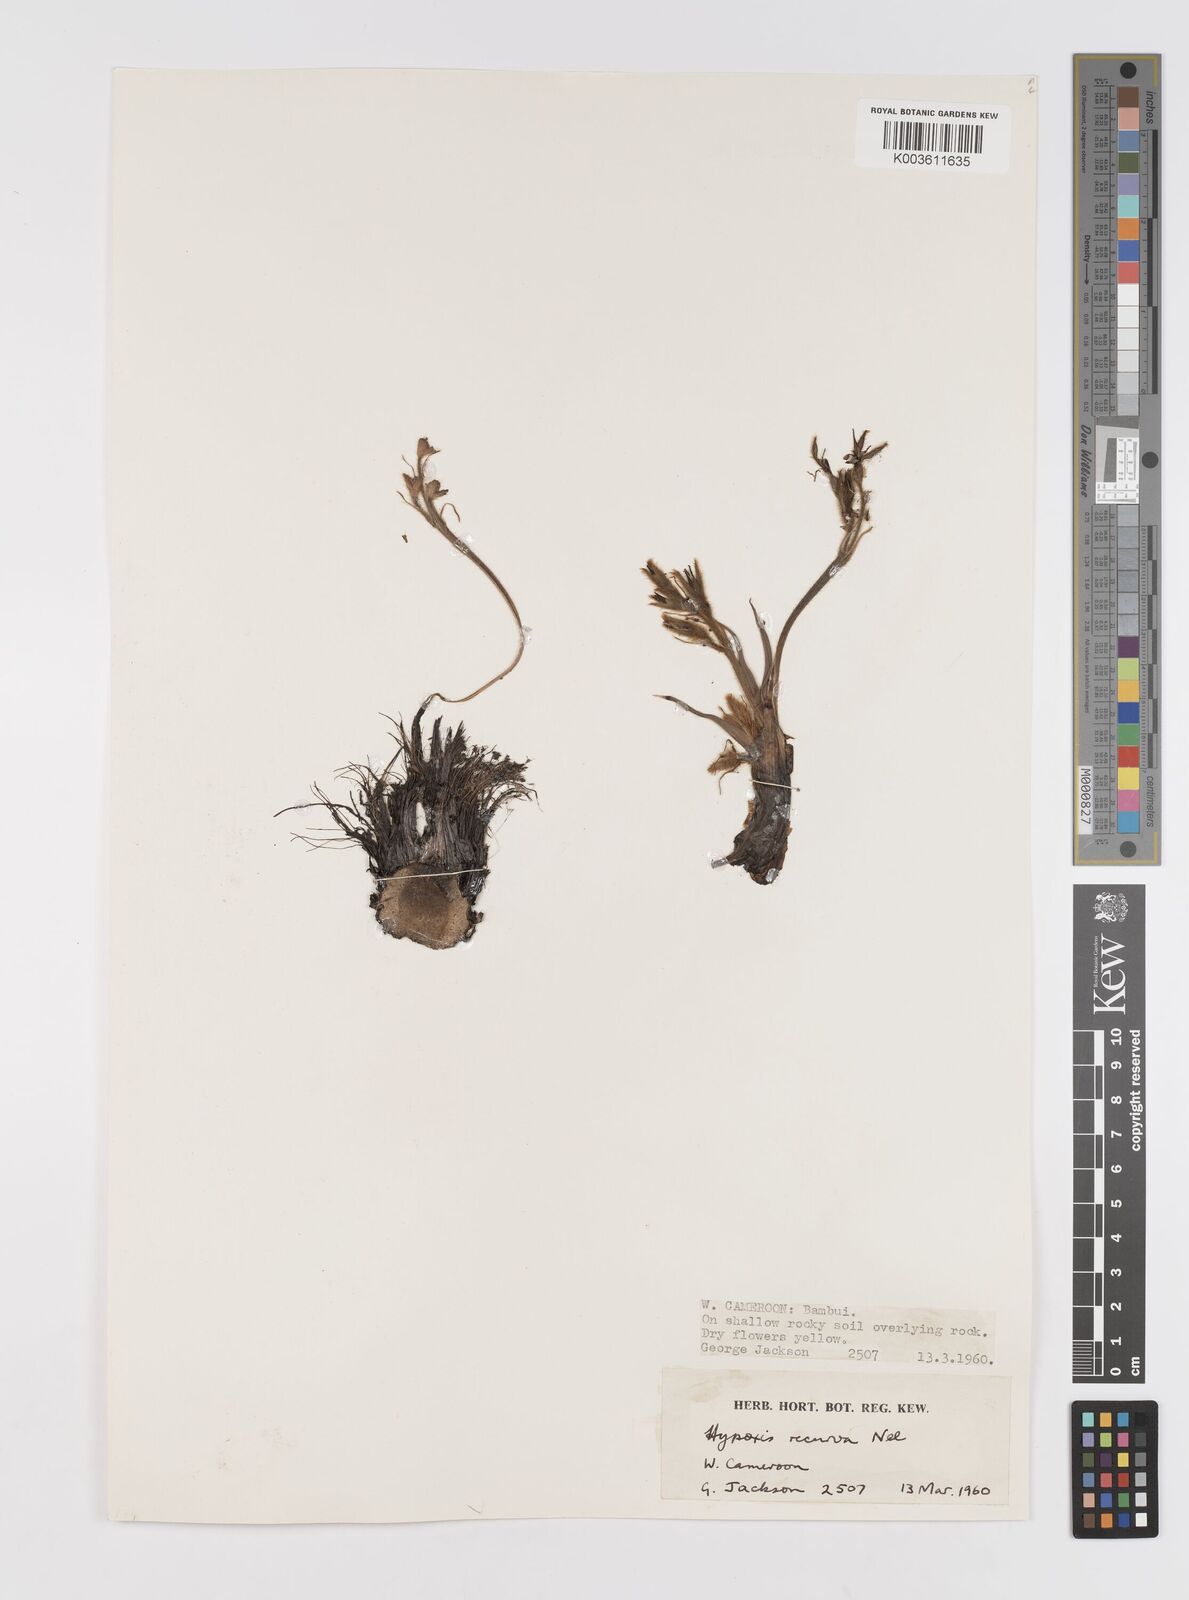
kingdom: Plantae
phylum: Tracheophyta
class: Liliopsida
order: Asparagales
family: Hypoxidaceae
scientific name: Hypoxidaceae
